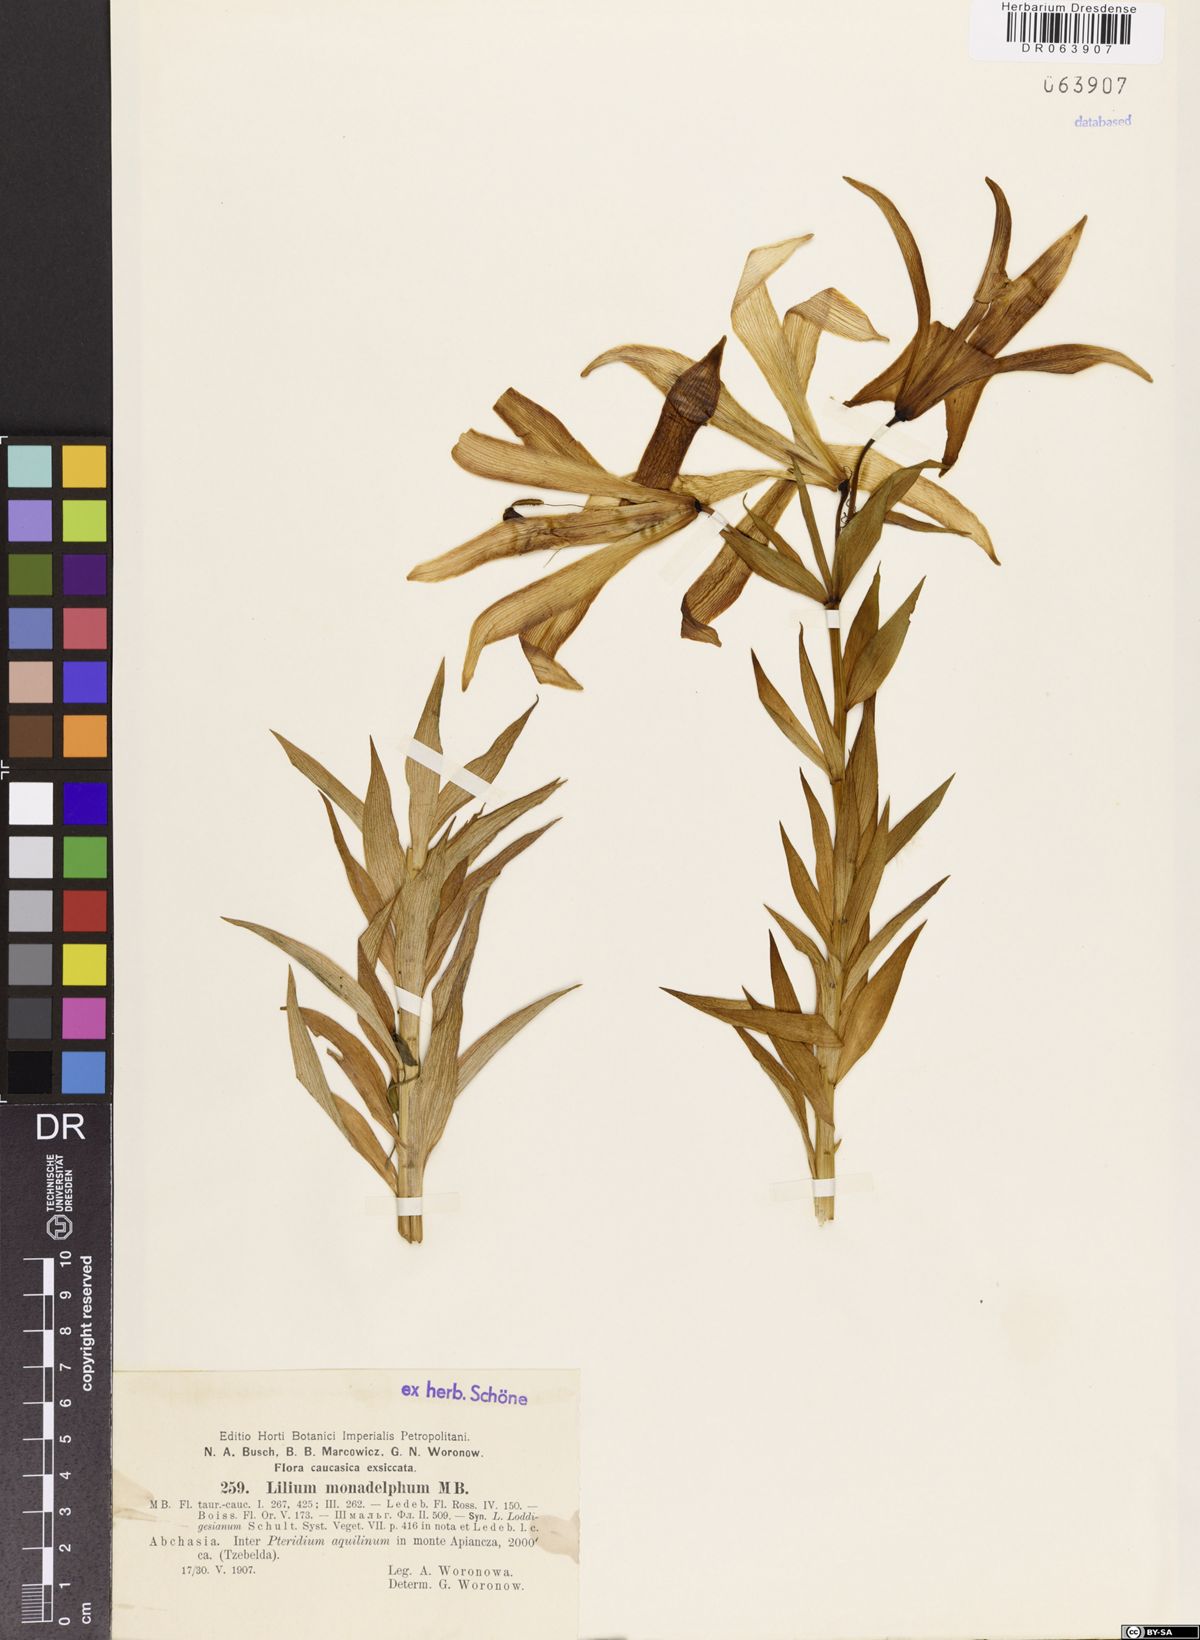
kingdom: Plantae
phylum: Tracheophyta
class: Liliopsida
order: Liliales
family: Liliaceae
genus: Lilium
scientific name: Lilium monadelphum
